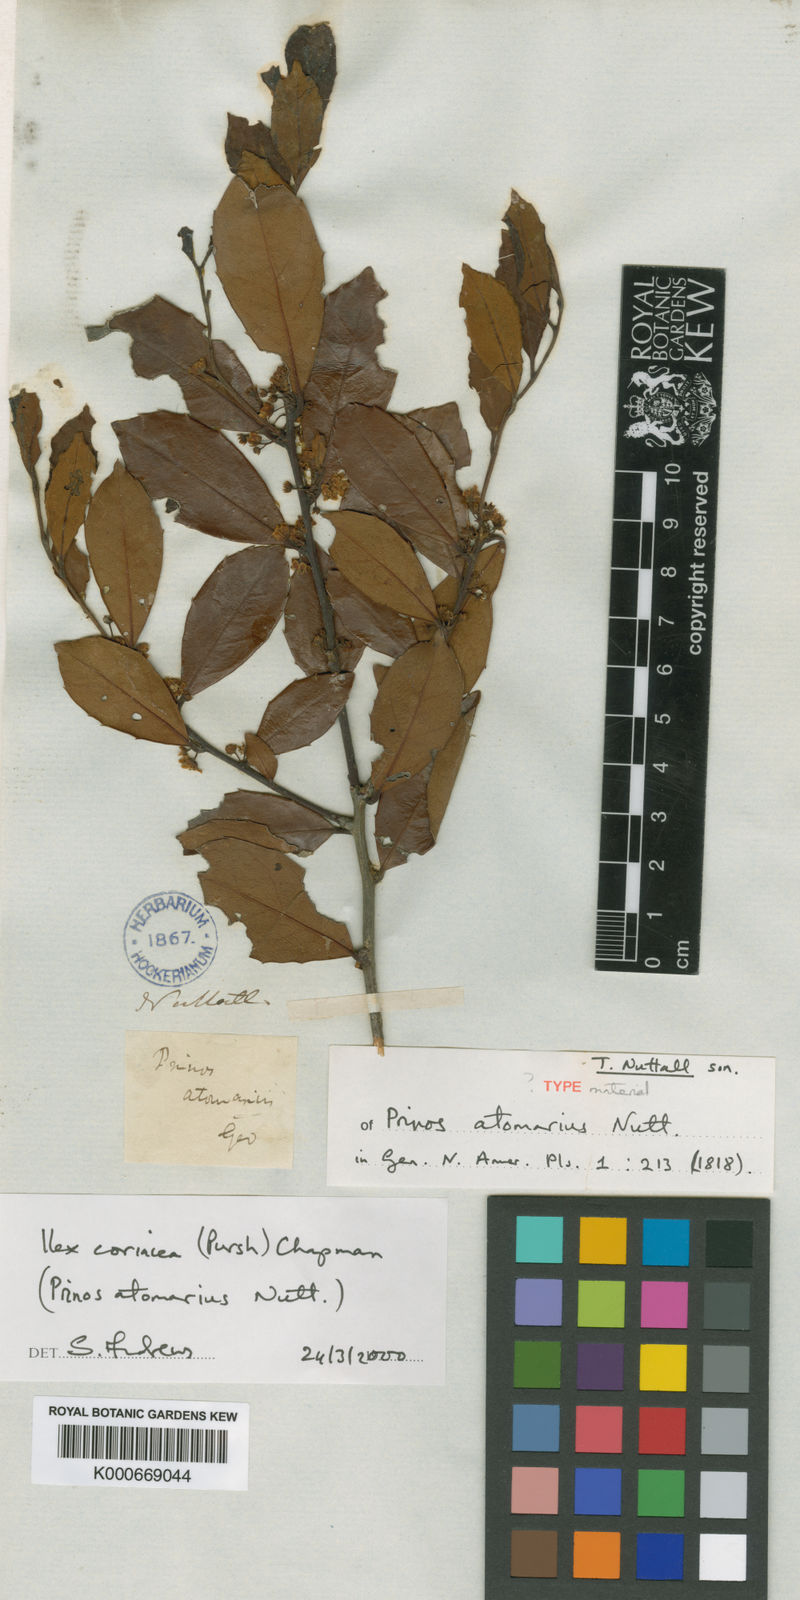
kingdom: Plantae
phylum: Tracheophyta
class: Magnoliopsida
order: Aquifoliales
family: Aquifoliaceae
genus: Ilex
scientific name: Ilex coriacea
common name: Sweet gallberry
